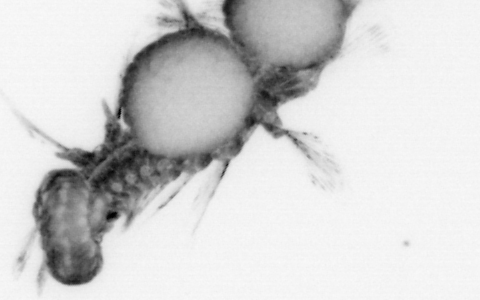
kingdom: Animalia
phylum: Annelida
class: Polychaeta
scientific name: Polychaeta
